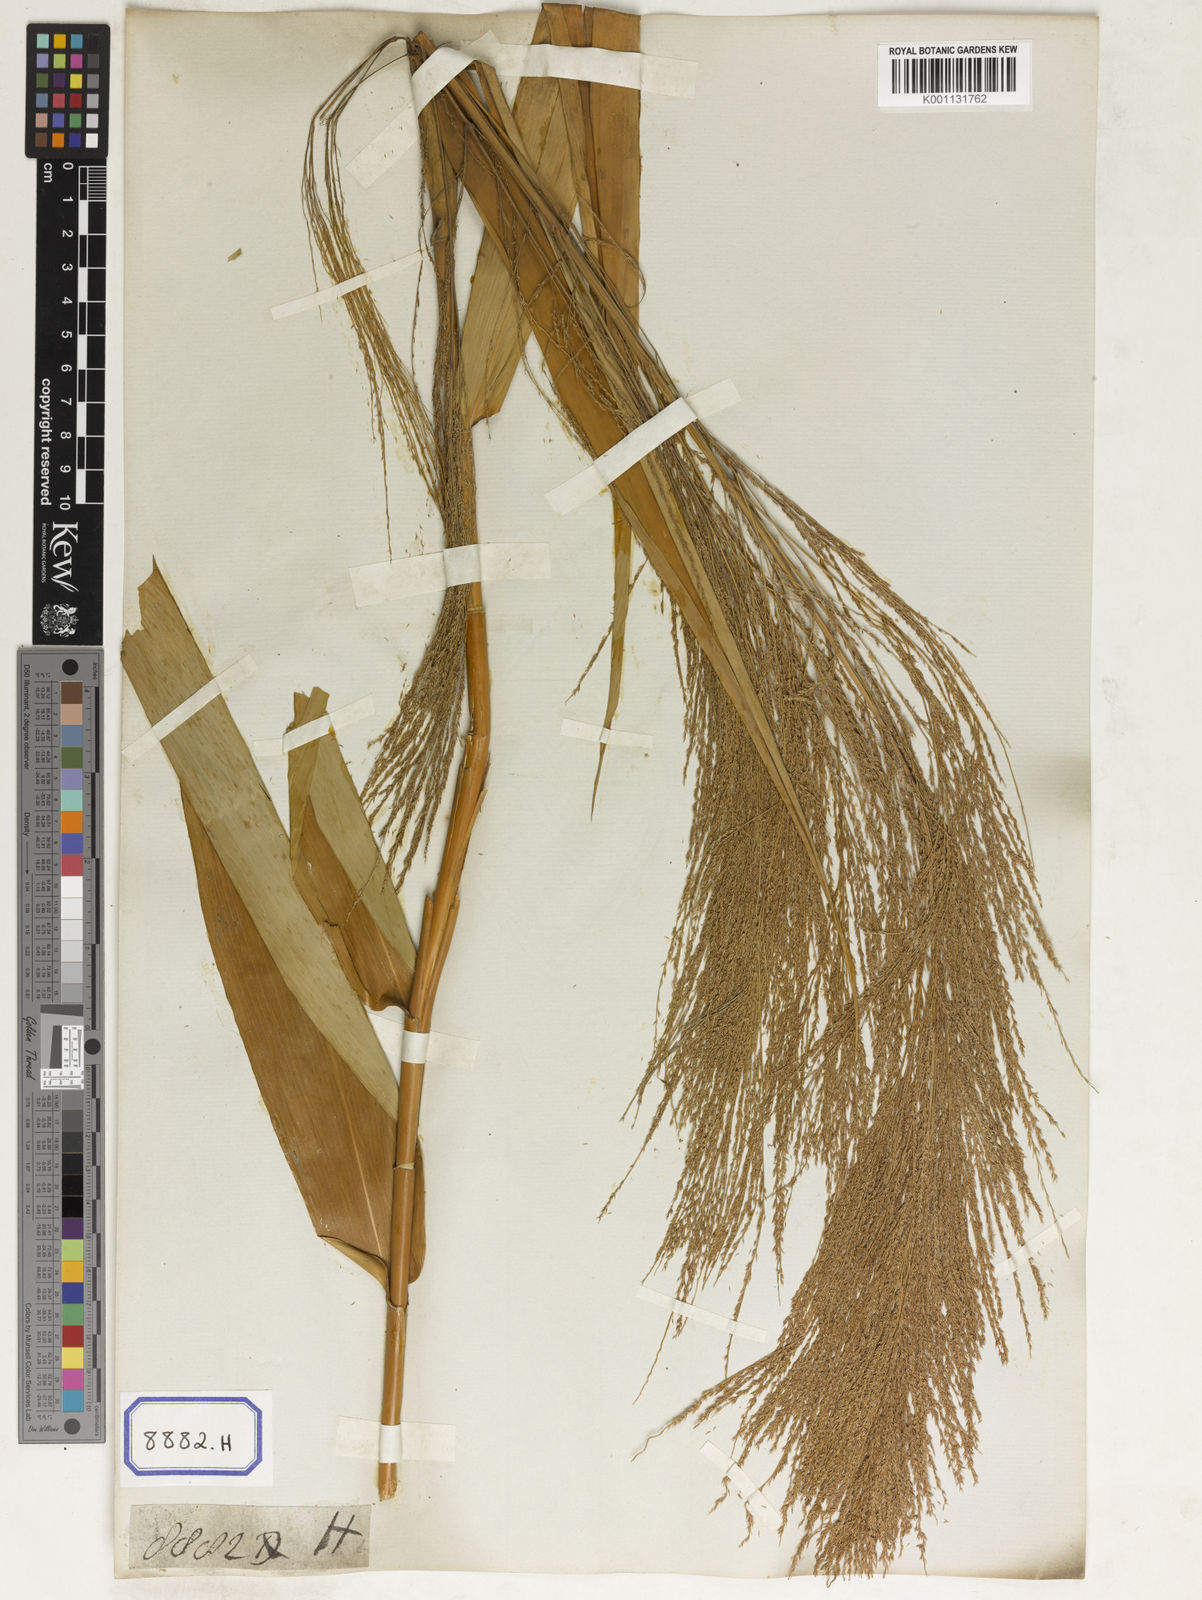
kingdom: Plantae
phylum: Tracheophyta
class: Liliopsida
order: Poales
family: Poaceae
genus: Thysanolaena
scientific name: Thysanolaena latifolia
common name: Tiger grass
